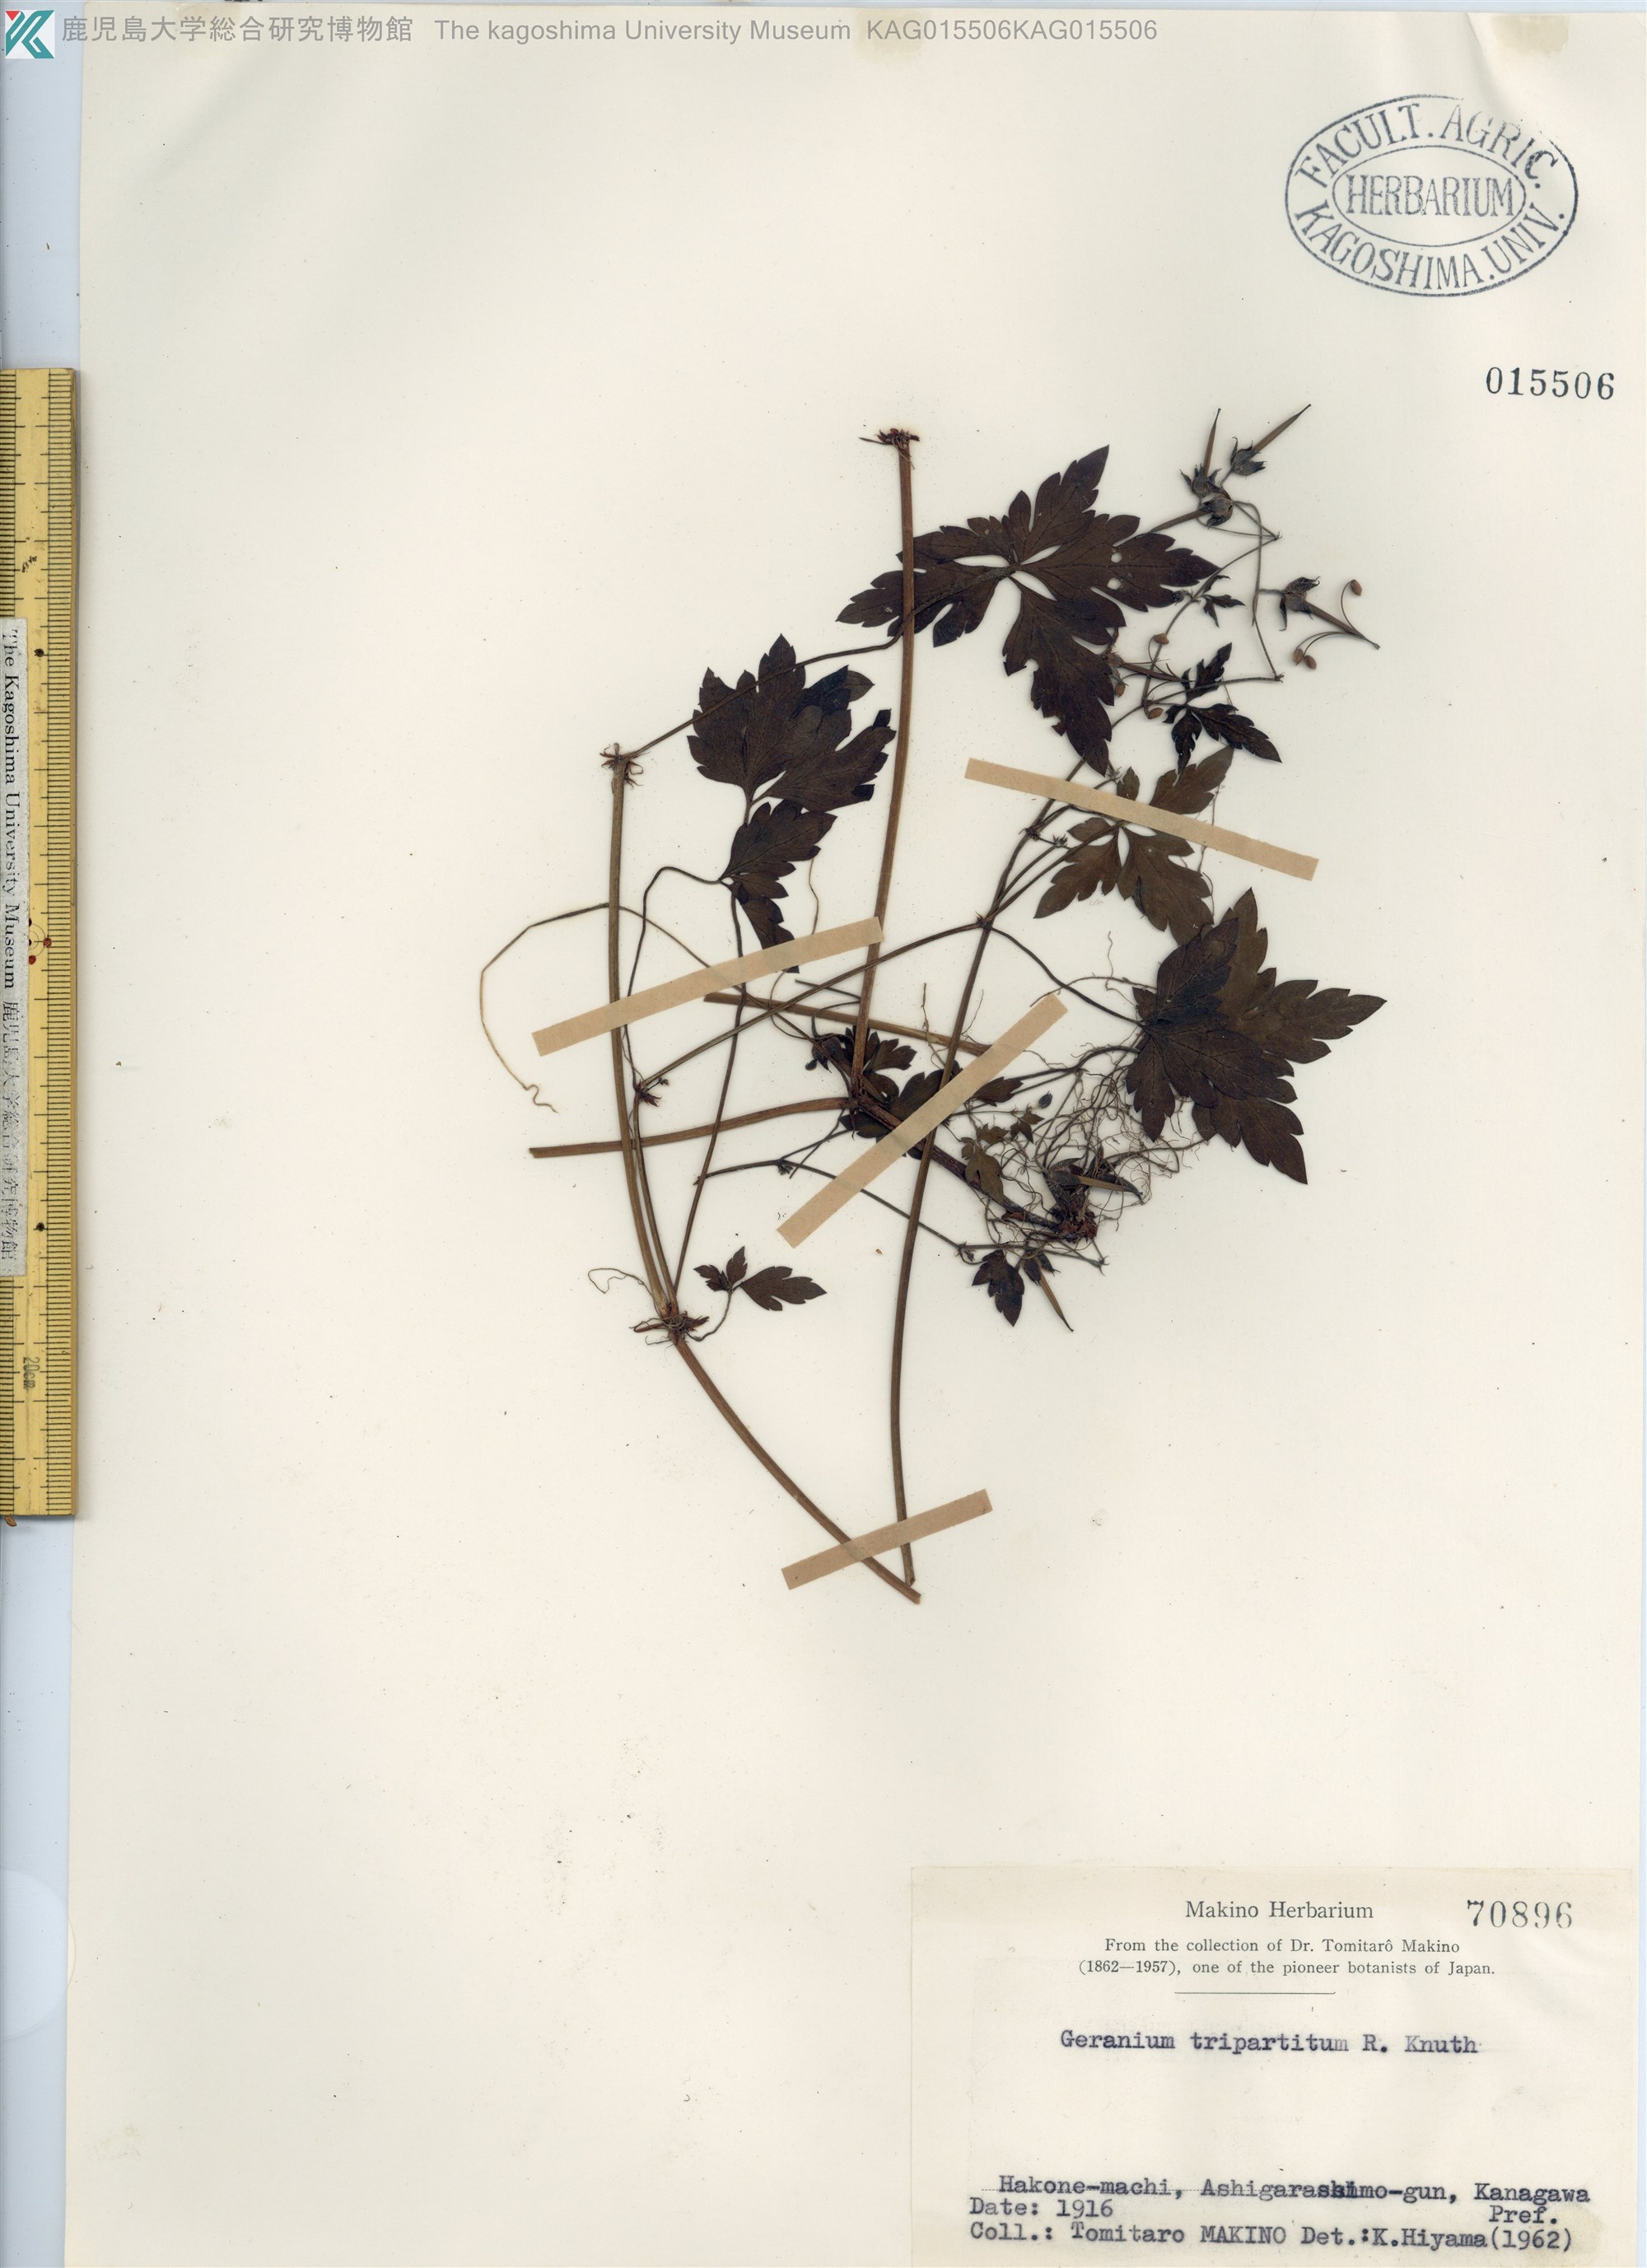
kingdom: Plantae
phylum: Tracheophyta
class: Magnoliopsida
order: Geraniales
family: Geraniaceae
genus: Geranium
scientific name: Geranium tripartitum
